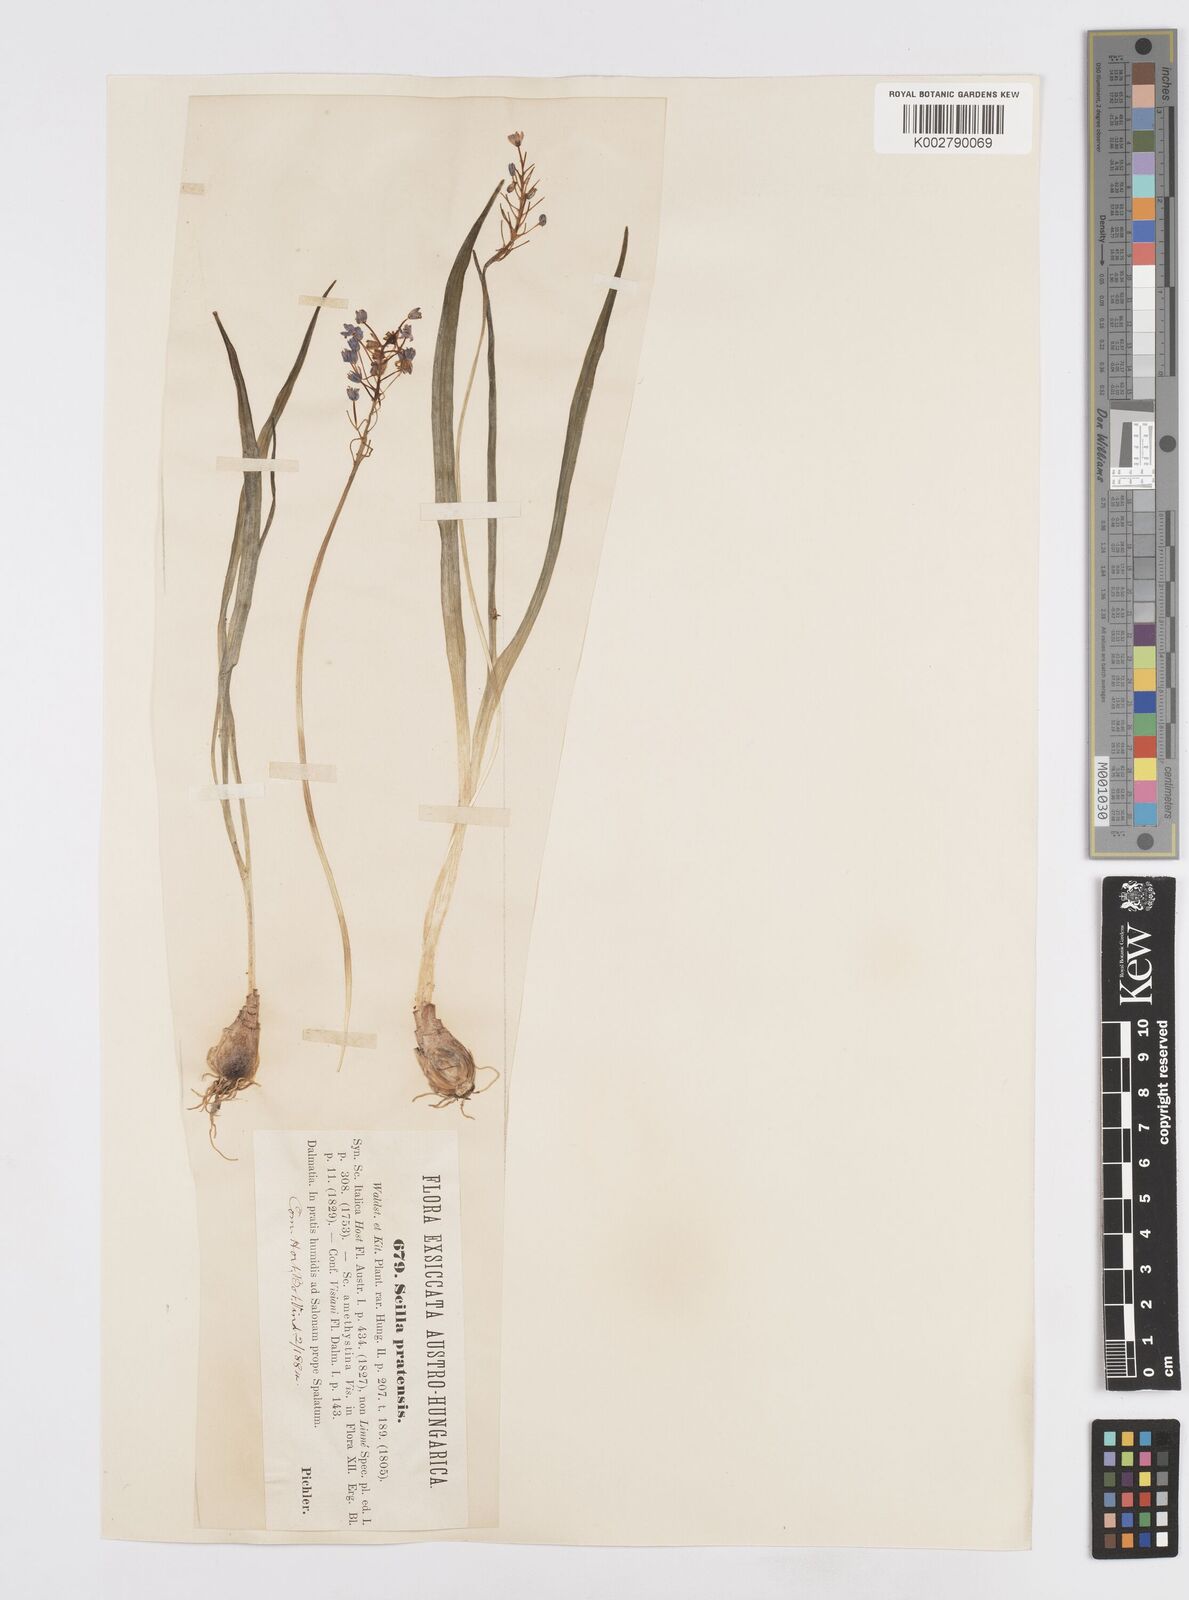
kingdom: Plantae
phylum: Tracheophyta
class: Liliopsida
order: Asparagales
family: Asparagaceae
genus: Scilla
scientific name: Scilla litardierei
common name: Amethyst meadow squill
